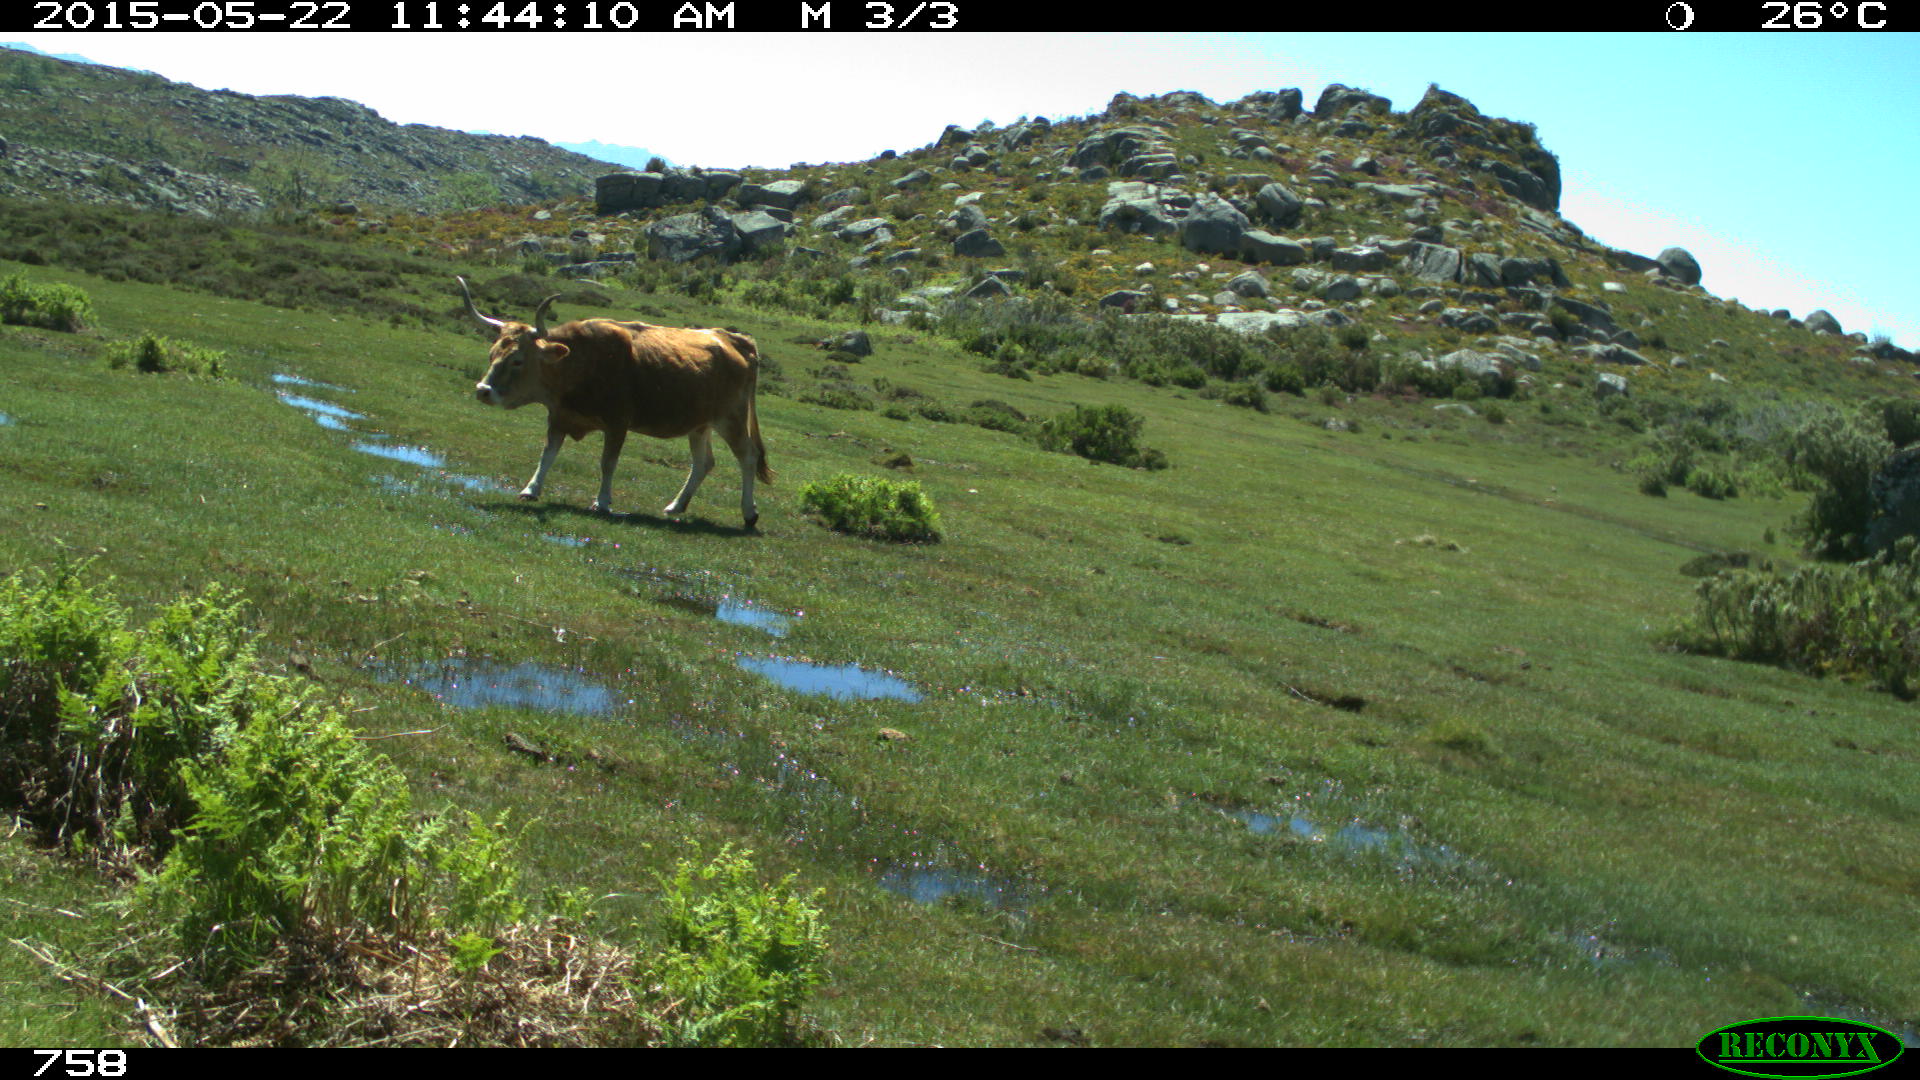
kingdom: Animalia
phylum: Chordata
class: Mammalia
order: Artiodactyla
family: Bovidae
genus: Bos
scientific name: Bos taurus
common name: Domesticated cattle
